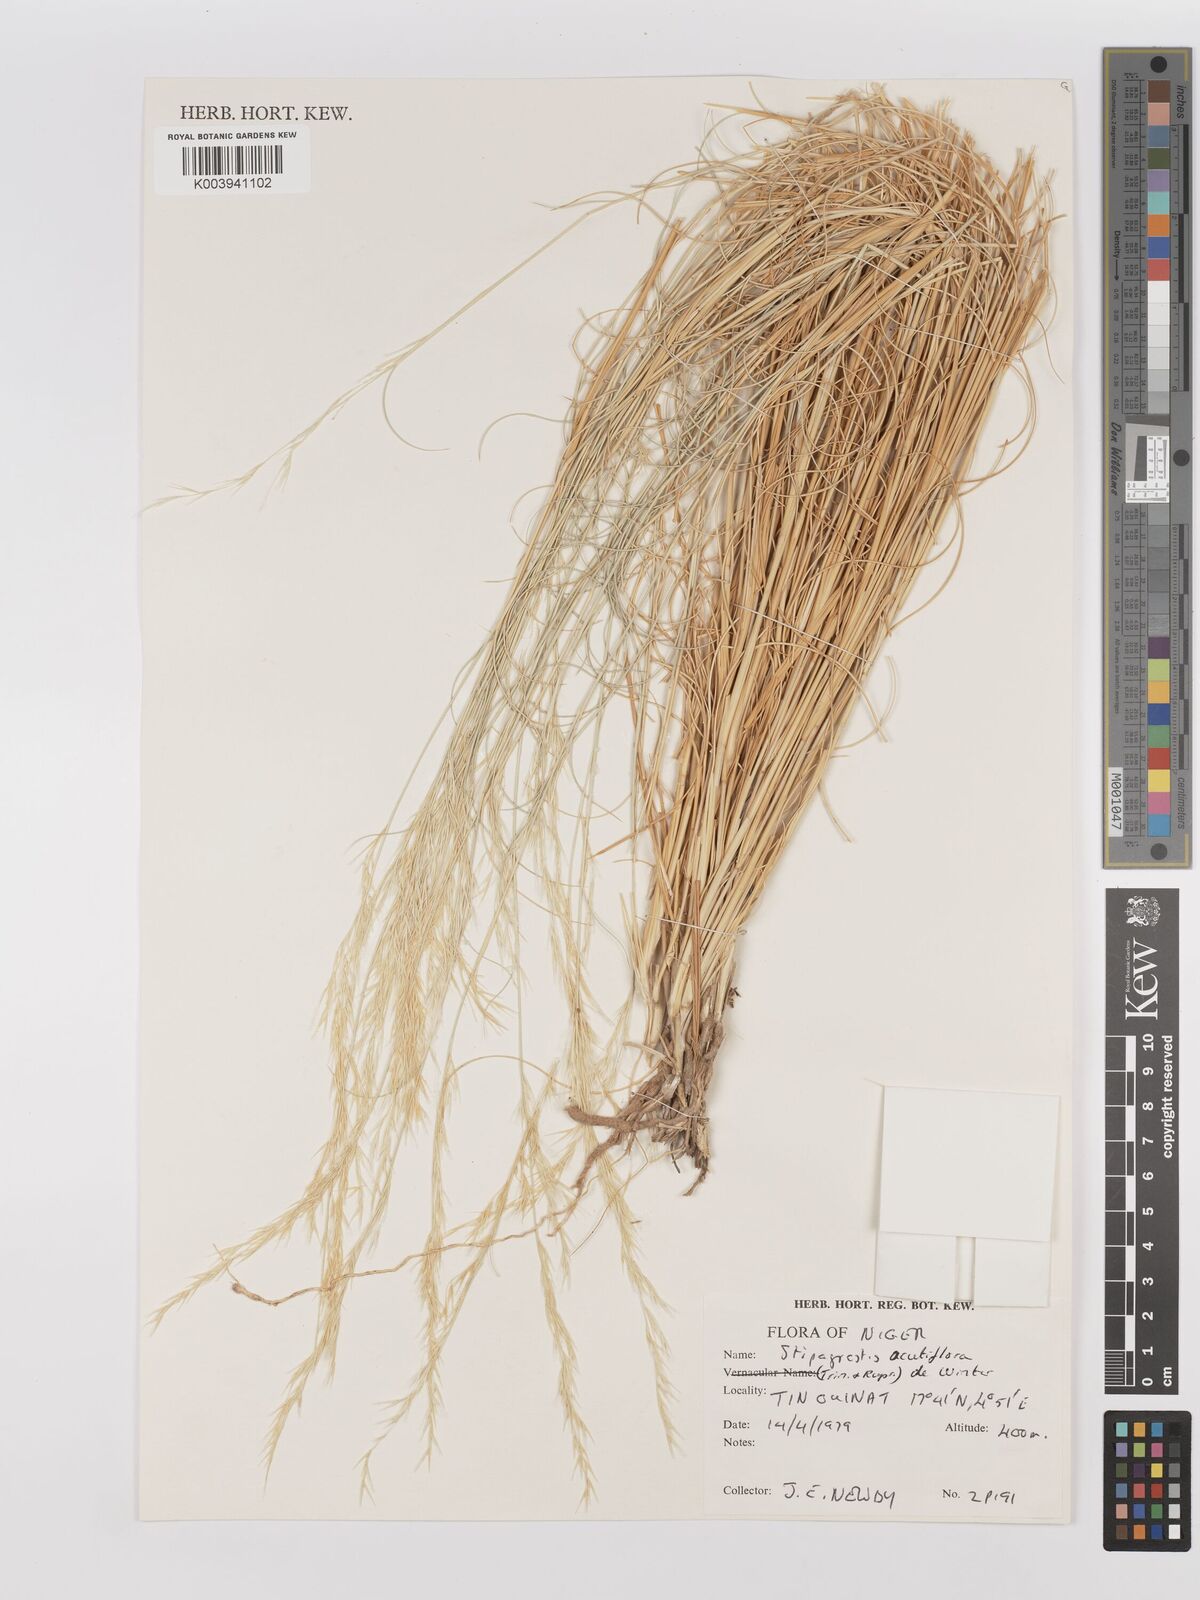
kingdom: Plantae
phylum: Tracheophyta
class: Liliopsida
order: Poales
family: Poaceae
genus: Stipagrostis
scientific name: Stipagrostis acutiflora
